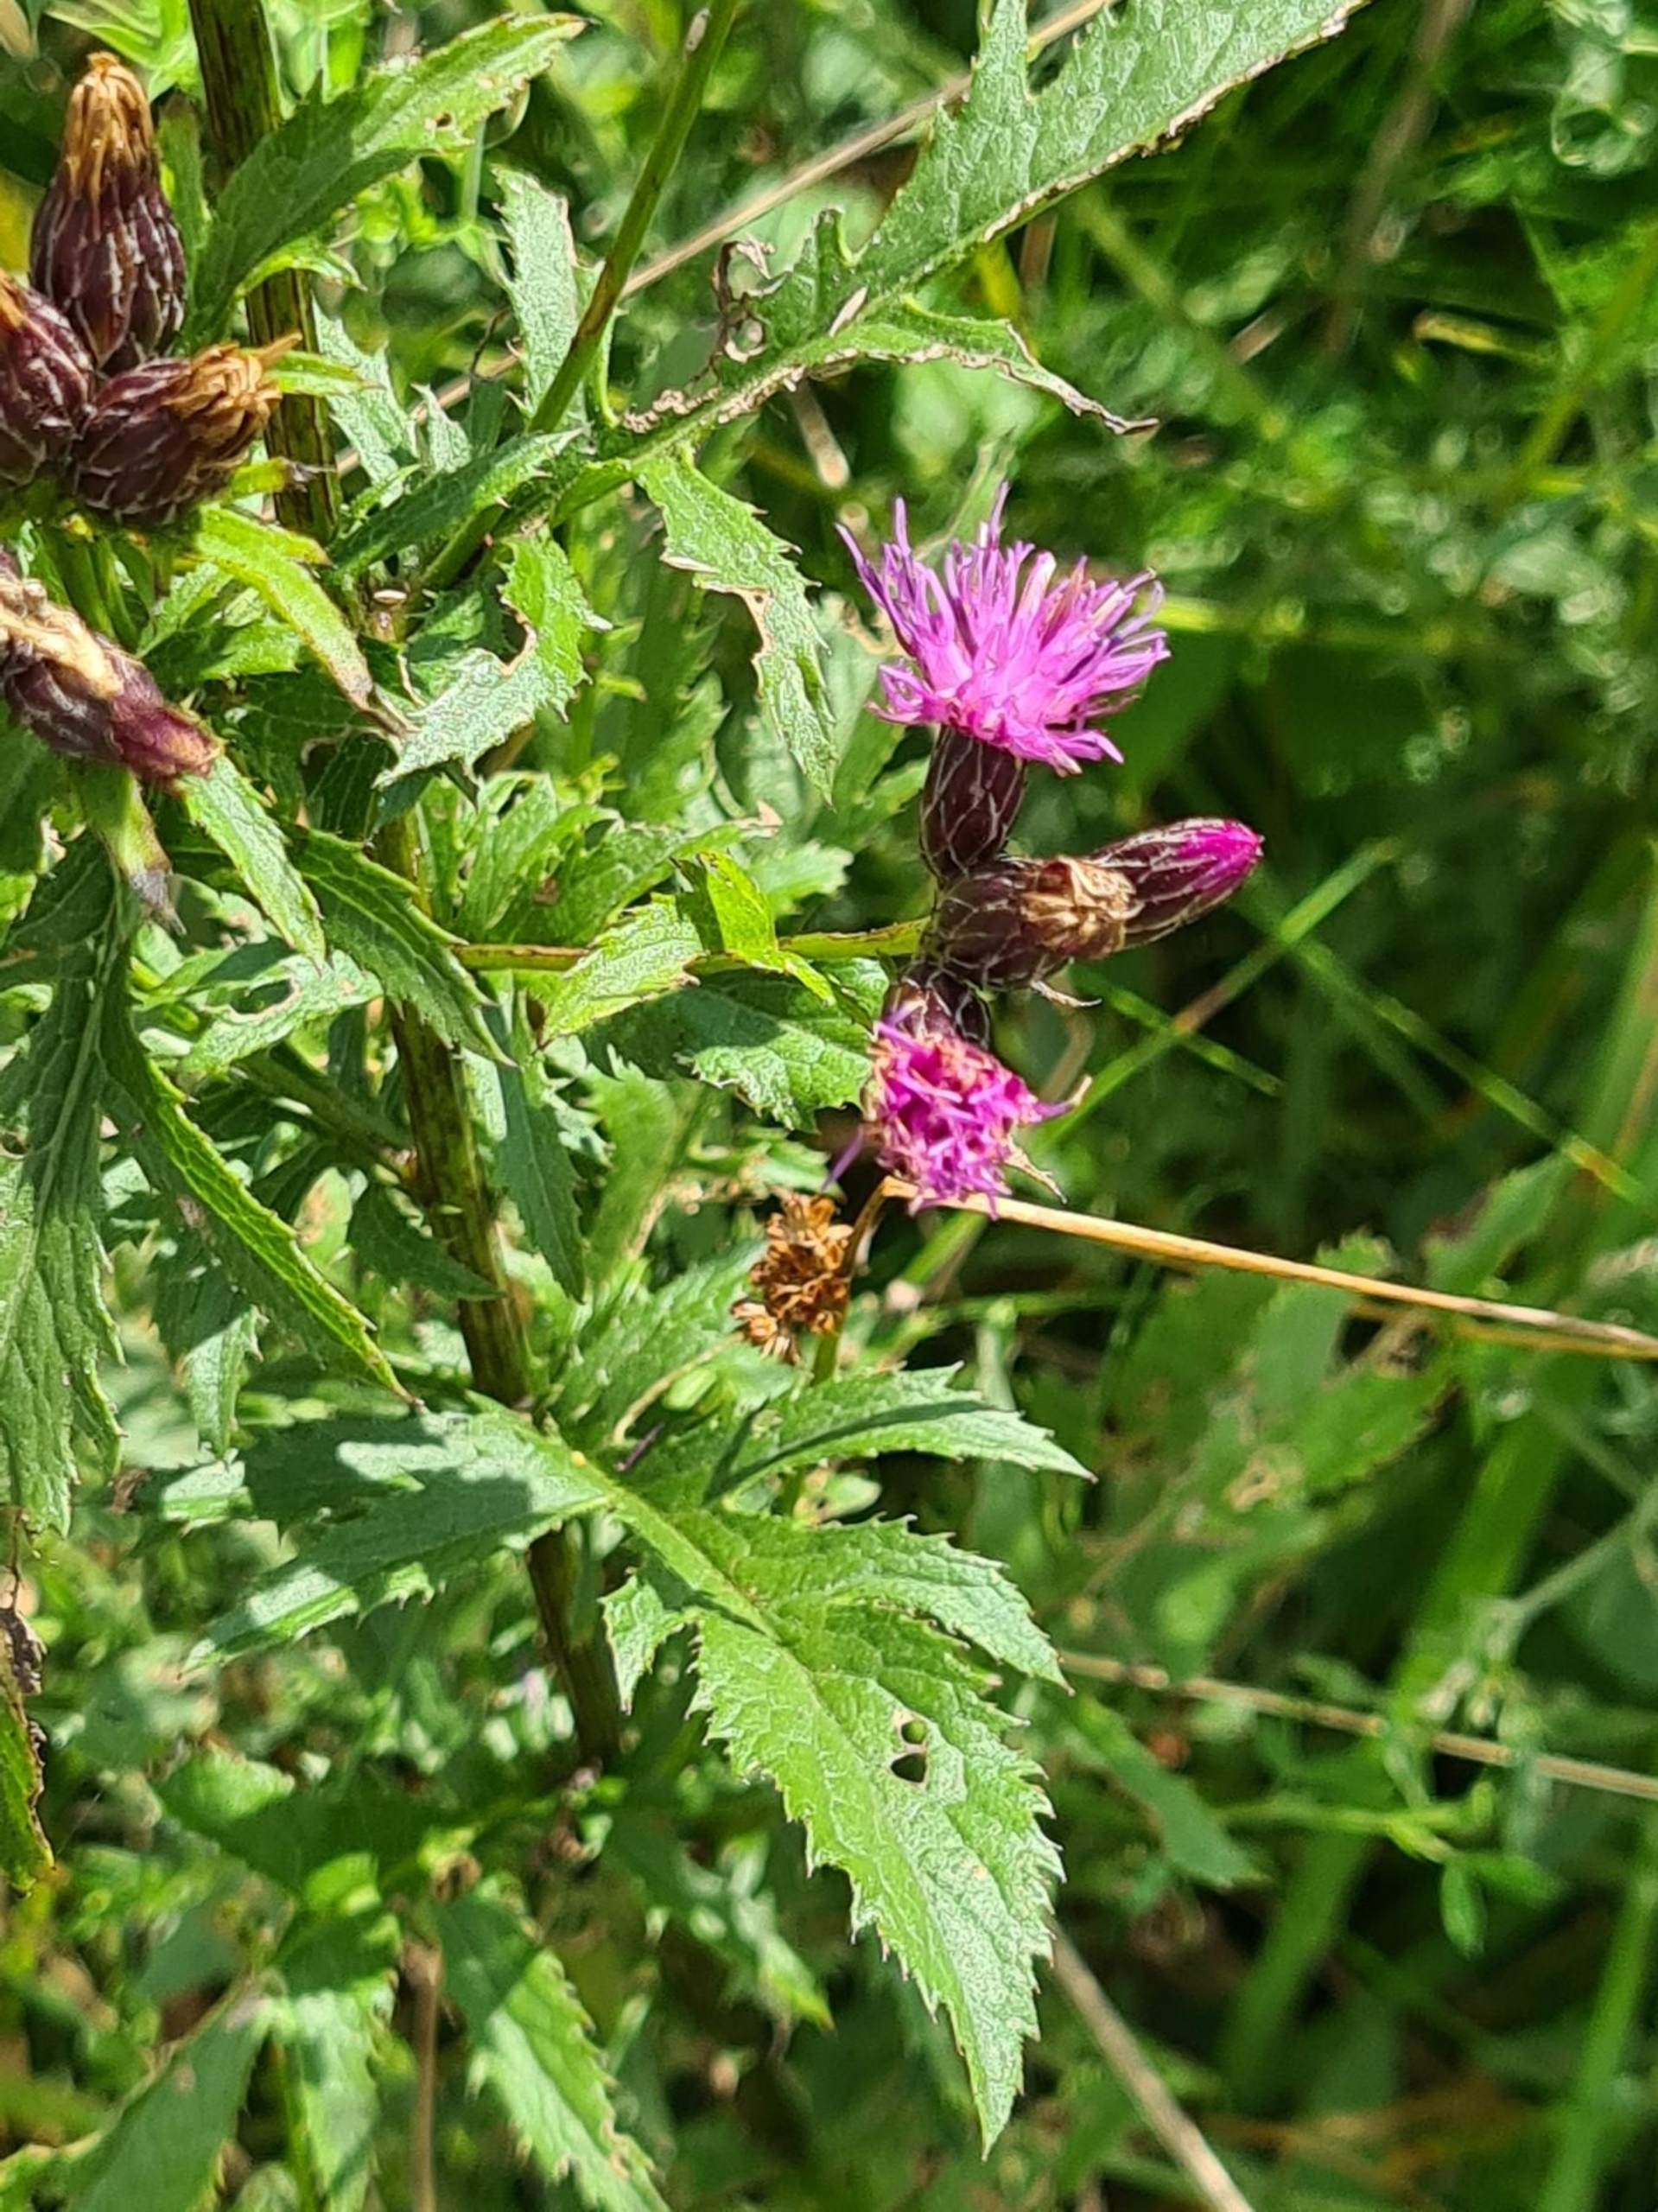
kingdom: Plantae
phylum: Tracheophyta
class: Magnoliopsida
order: Asterales
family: Asteraceae
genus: Serratula
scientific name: Serratula tinctoria
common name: Eng-skær
